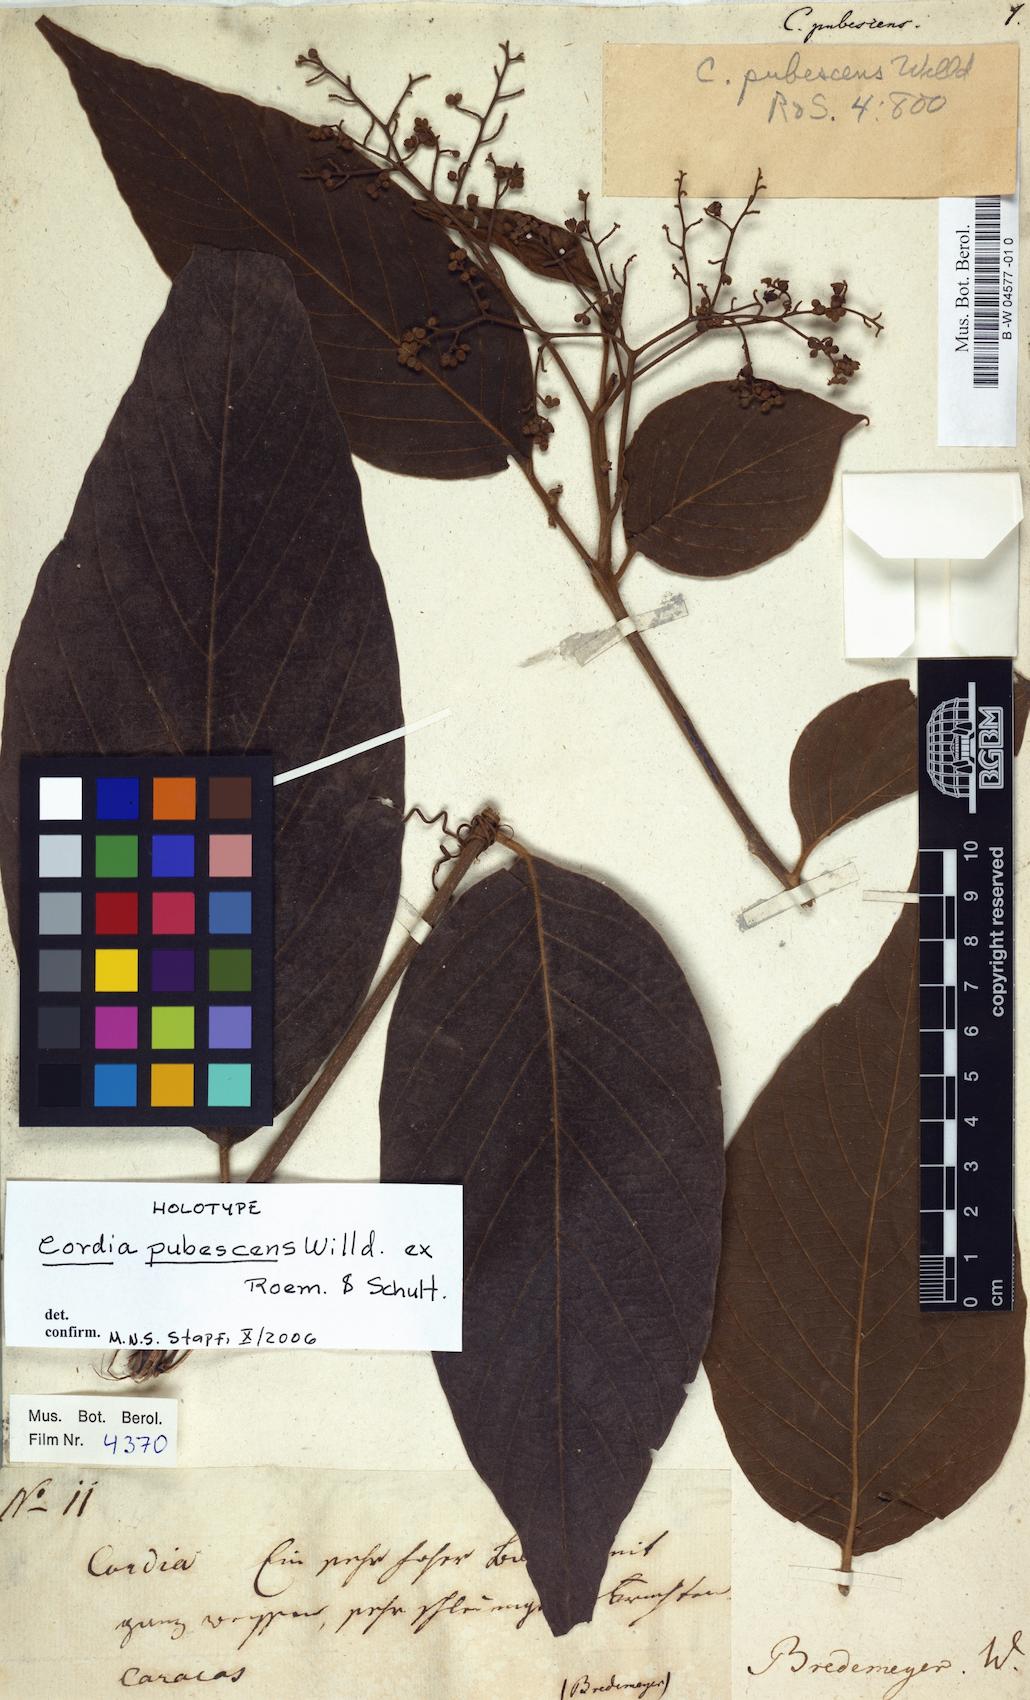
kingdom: Plantae
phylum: Tracheophyta
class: Magnoliopsida
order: Boraginales
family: Cordiaceae
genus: Cordia
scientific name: Cordia toqueve
